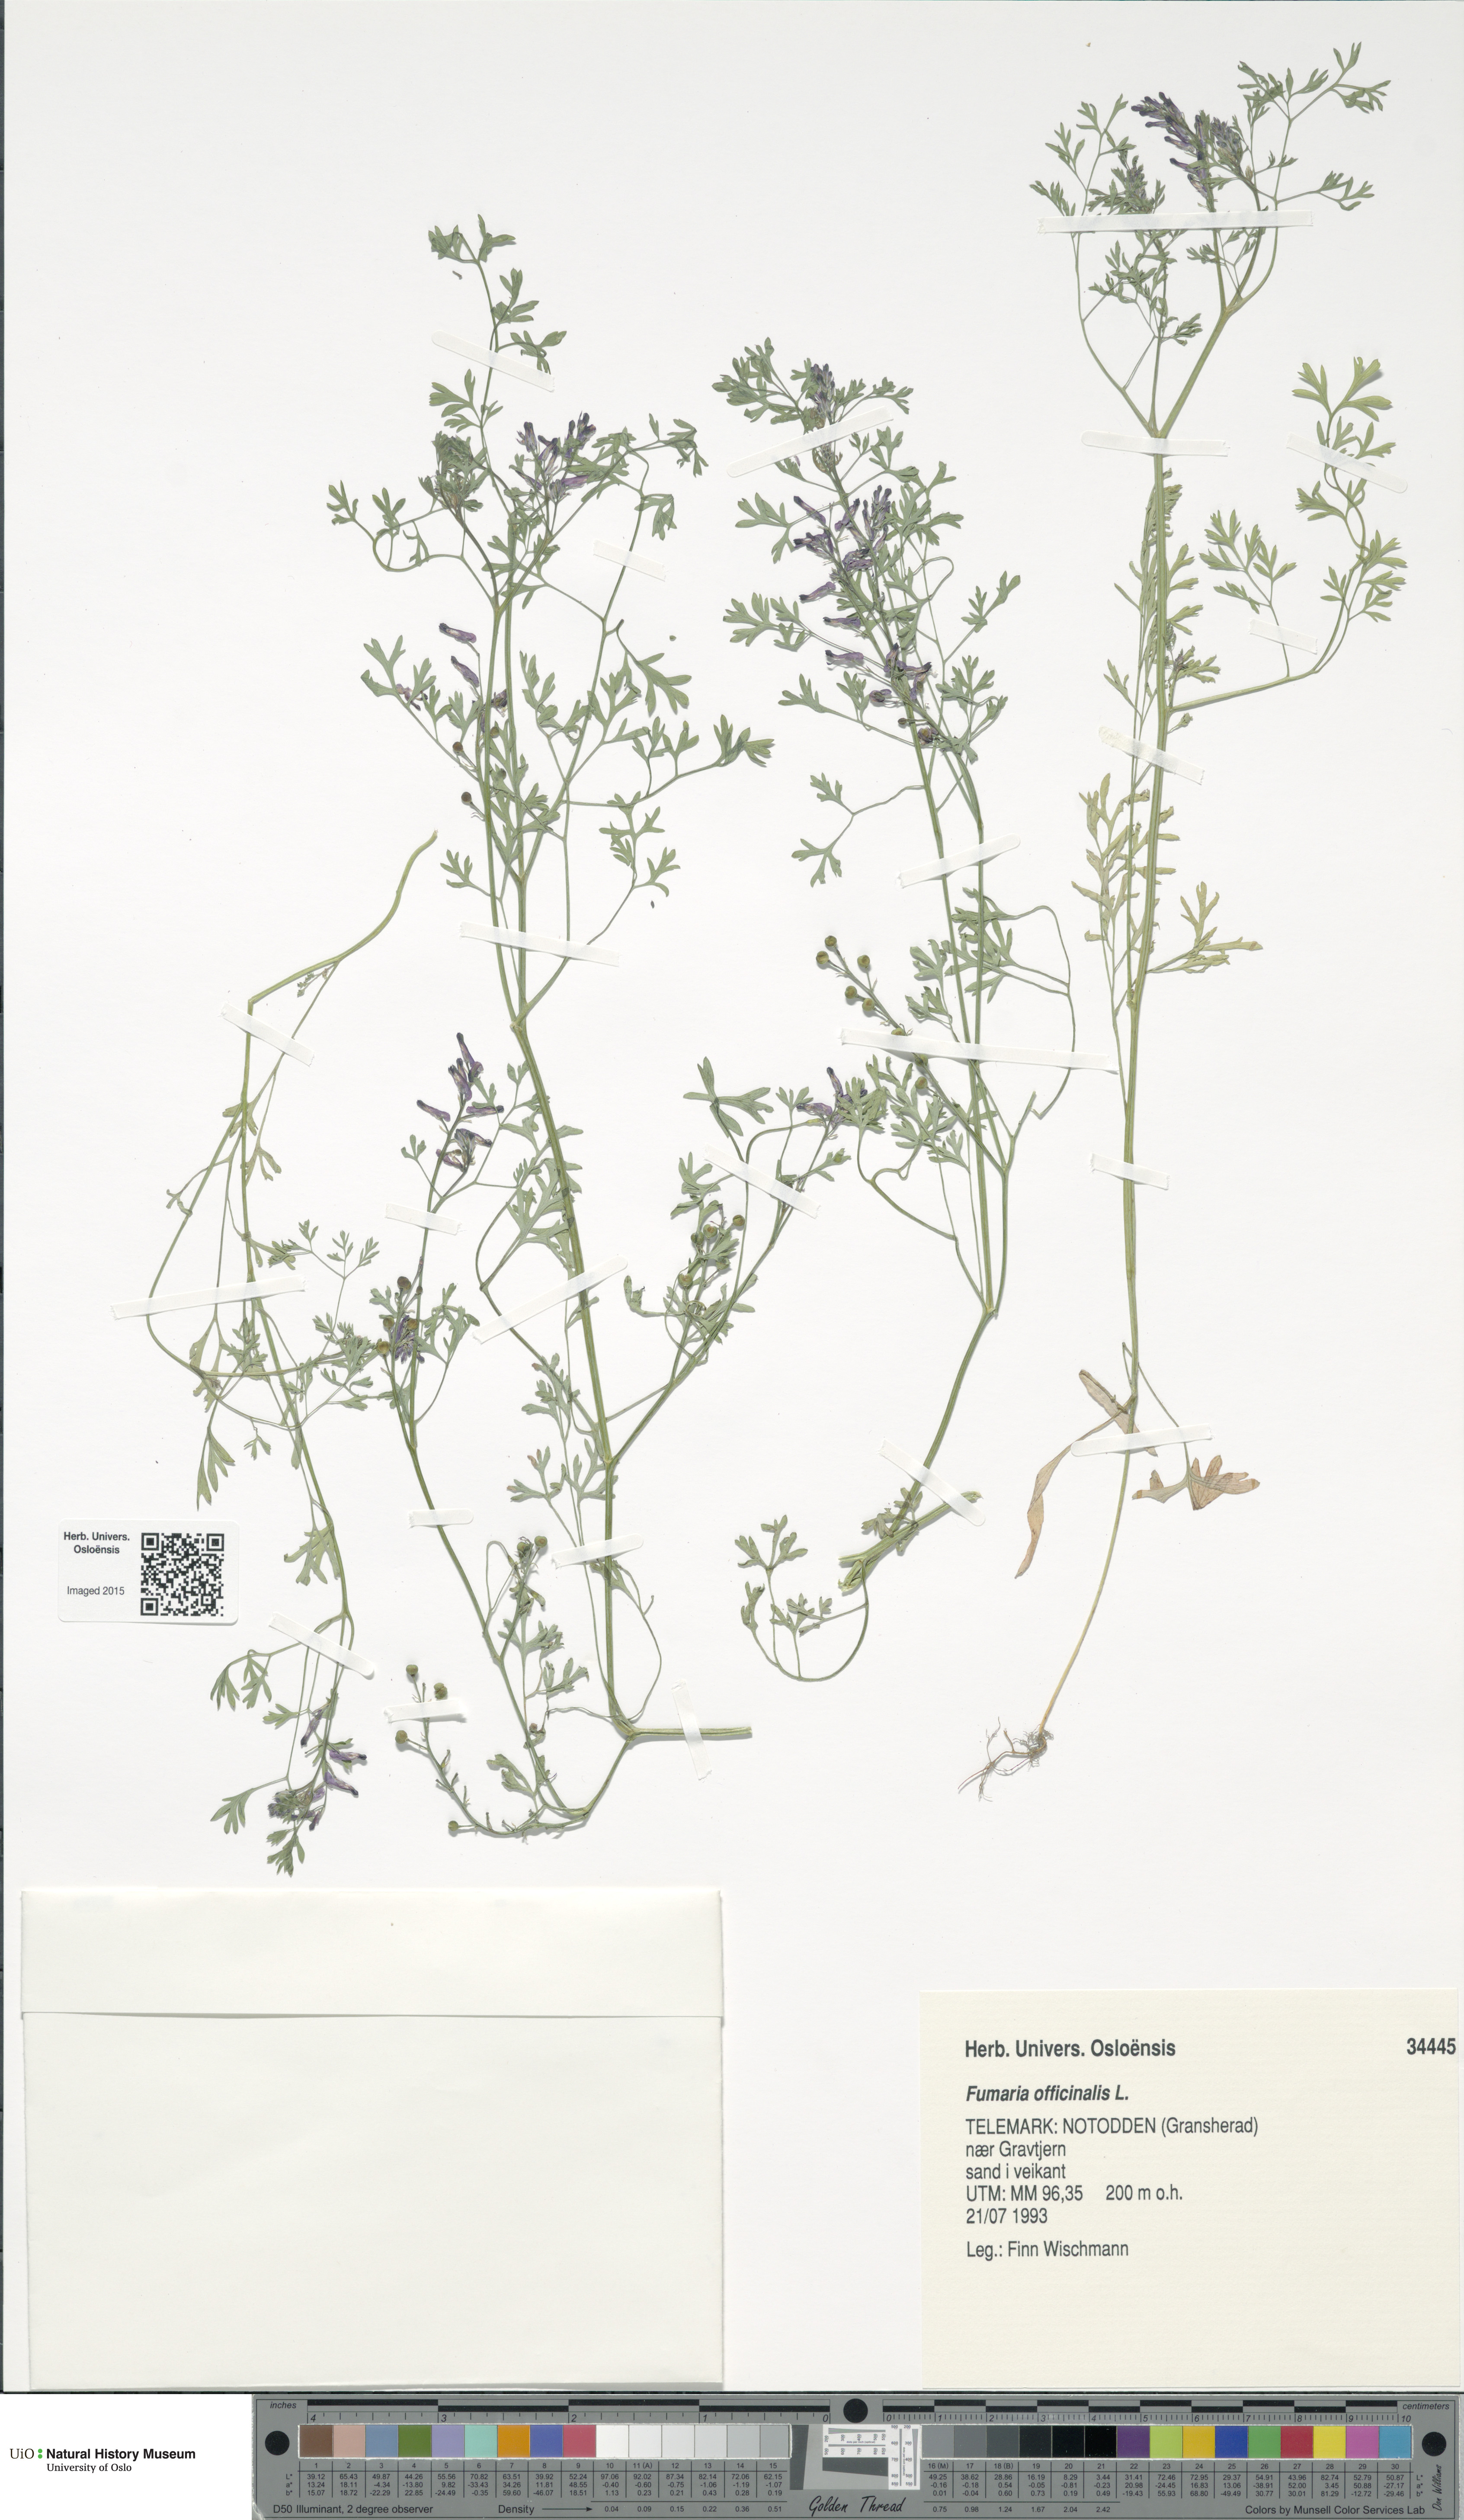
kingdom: Plantae
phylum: Tracheophyta
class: Magnoliopsida
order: Ranunculales
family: Papaveraceae
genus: Fumaria
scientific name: Fumaria officinalis
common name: Common fumitory
